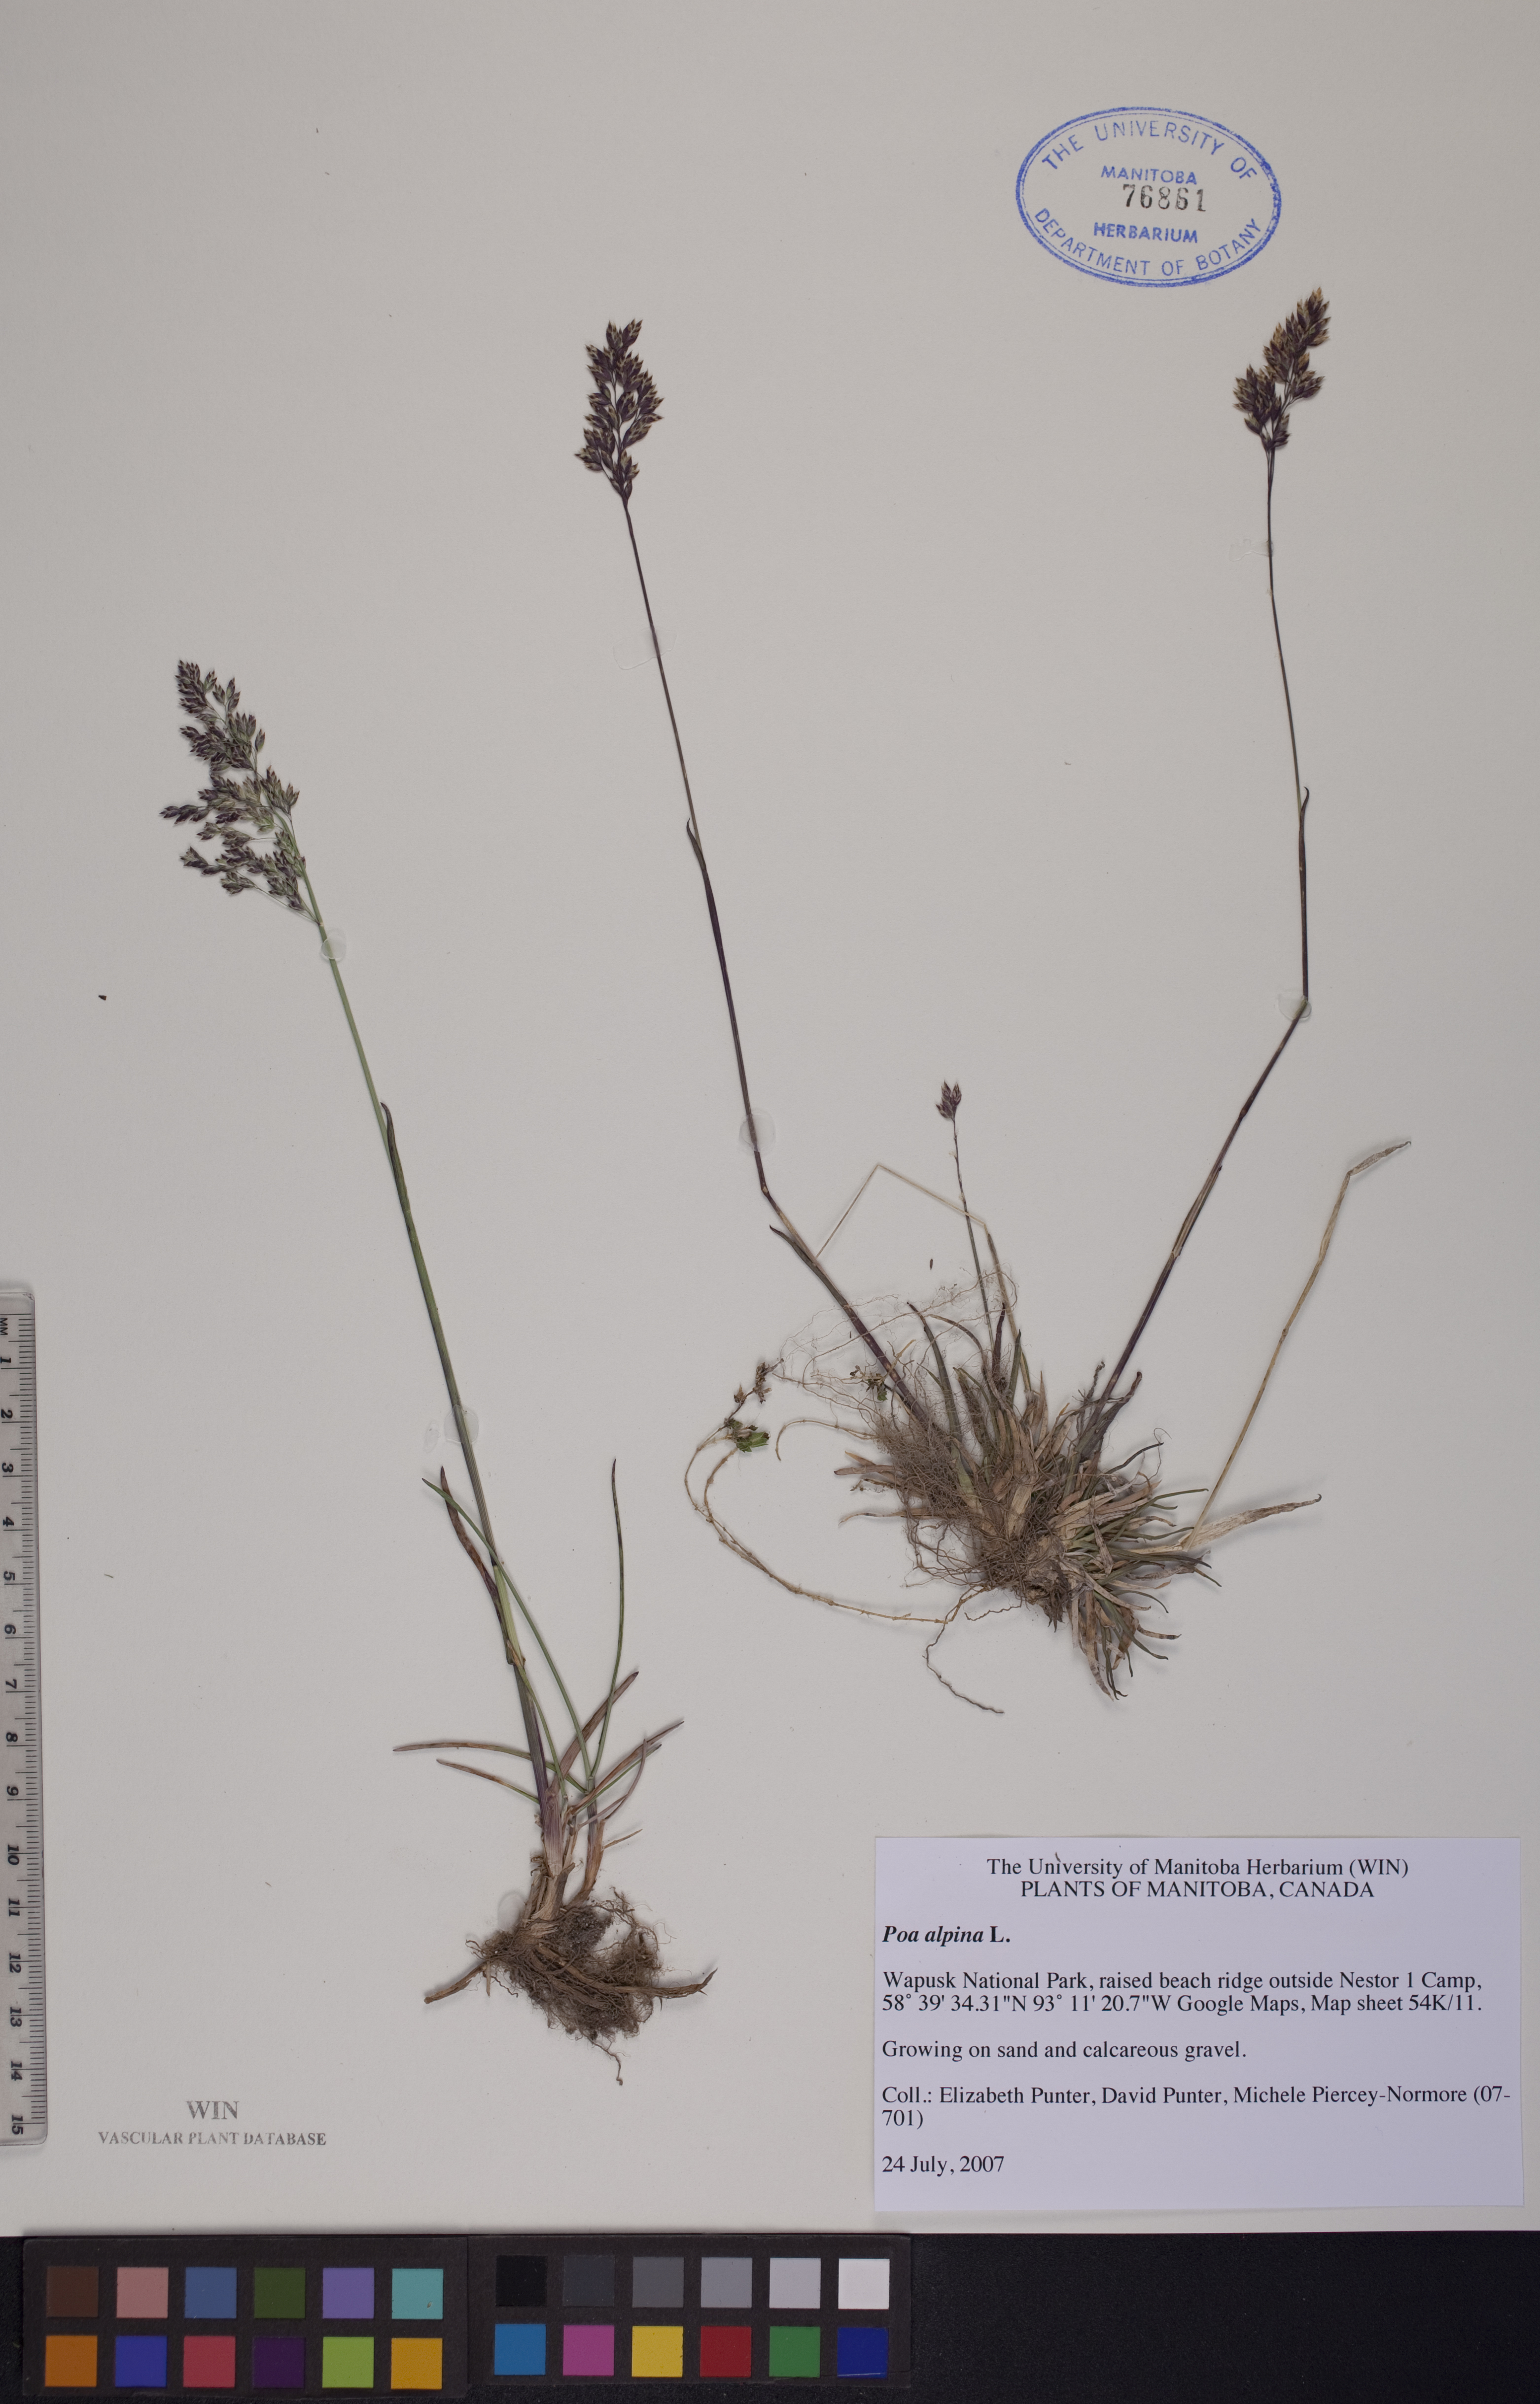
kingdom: Plantae
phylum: Tracheophyta
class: Liliopsida
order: Poales
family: Poaceae
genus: Poa
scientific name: Poa alpina
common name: Alpine bluegrass
